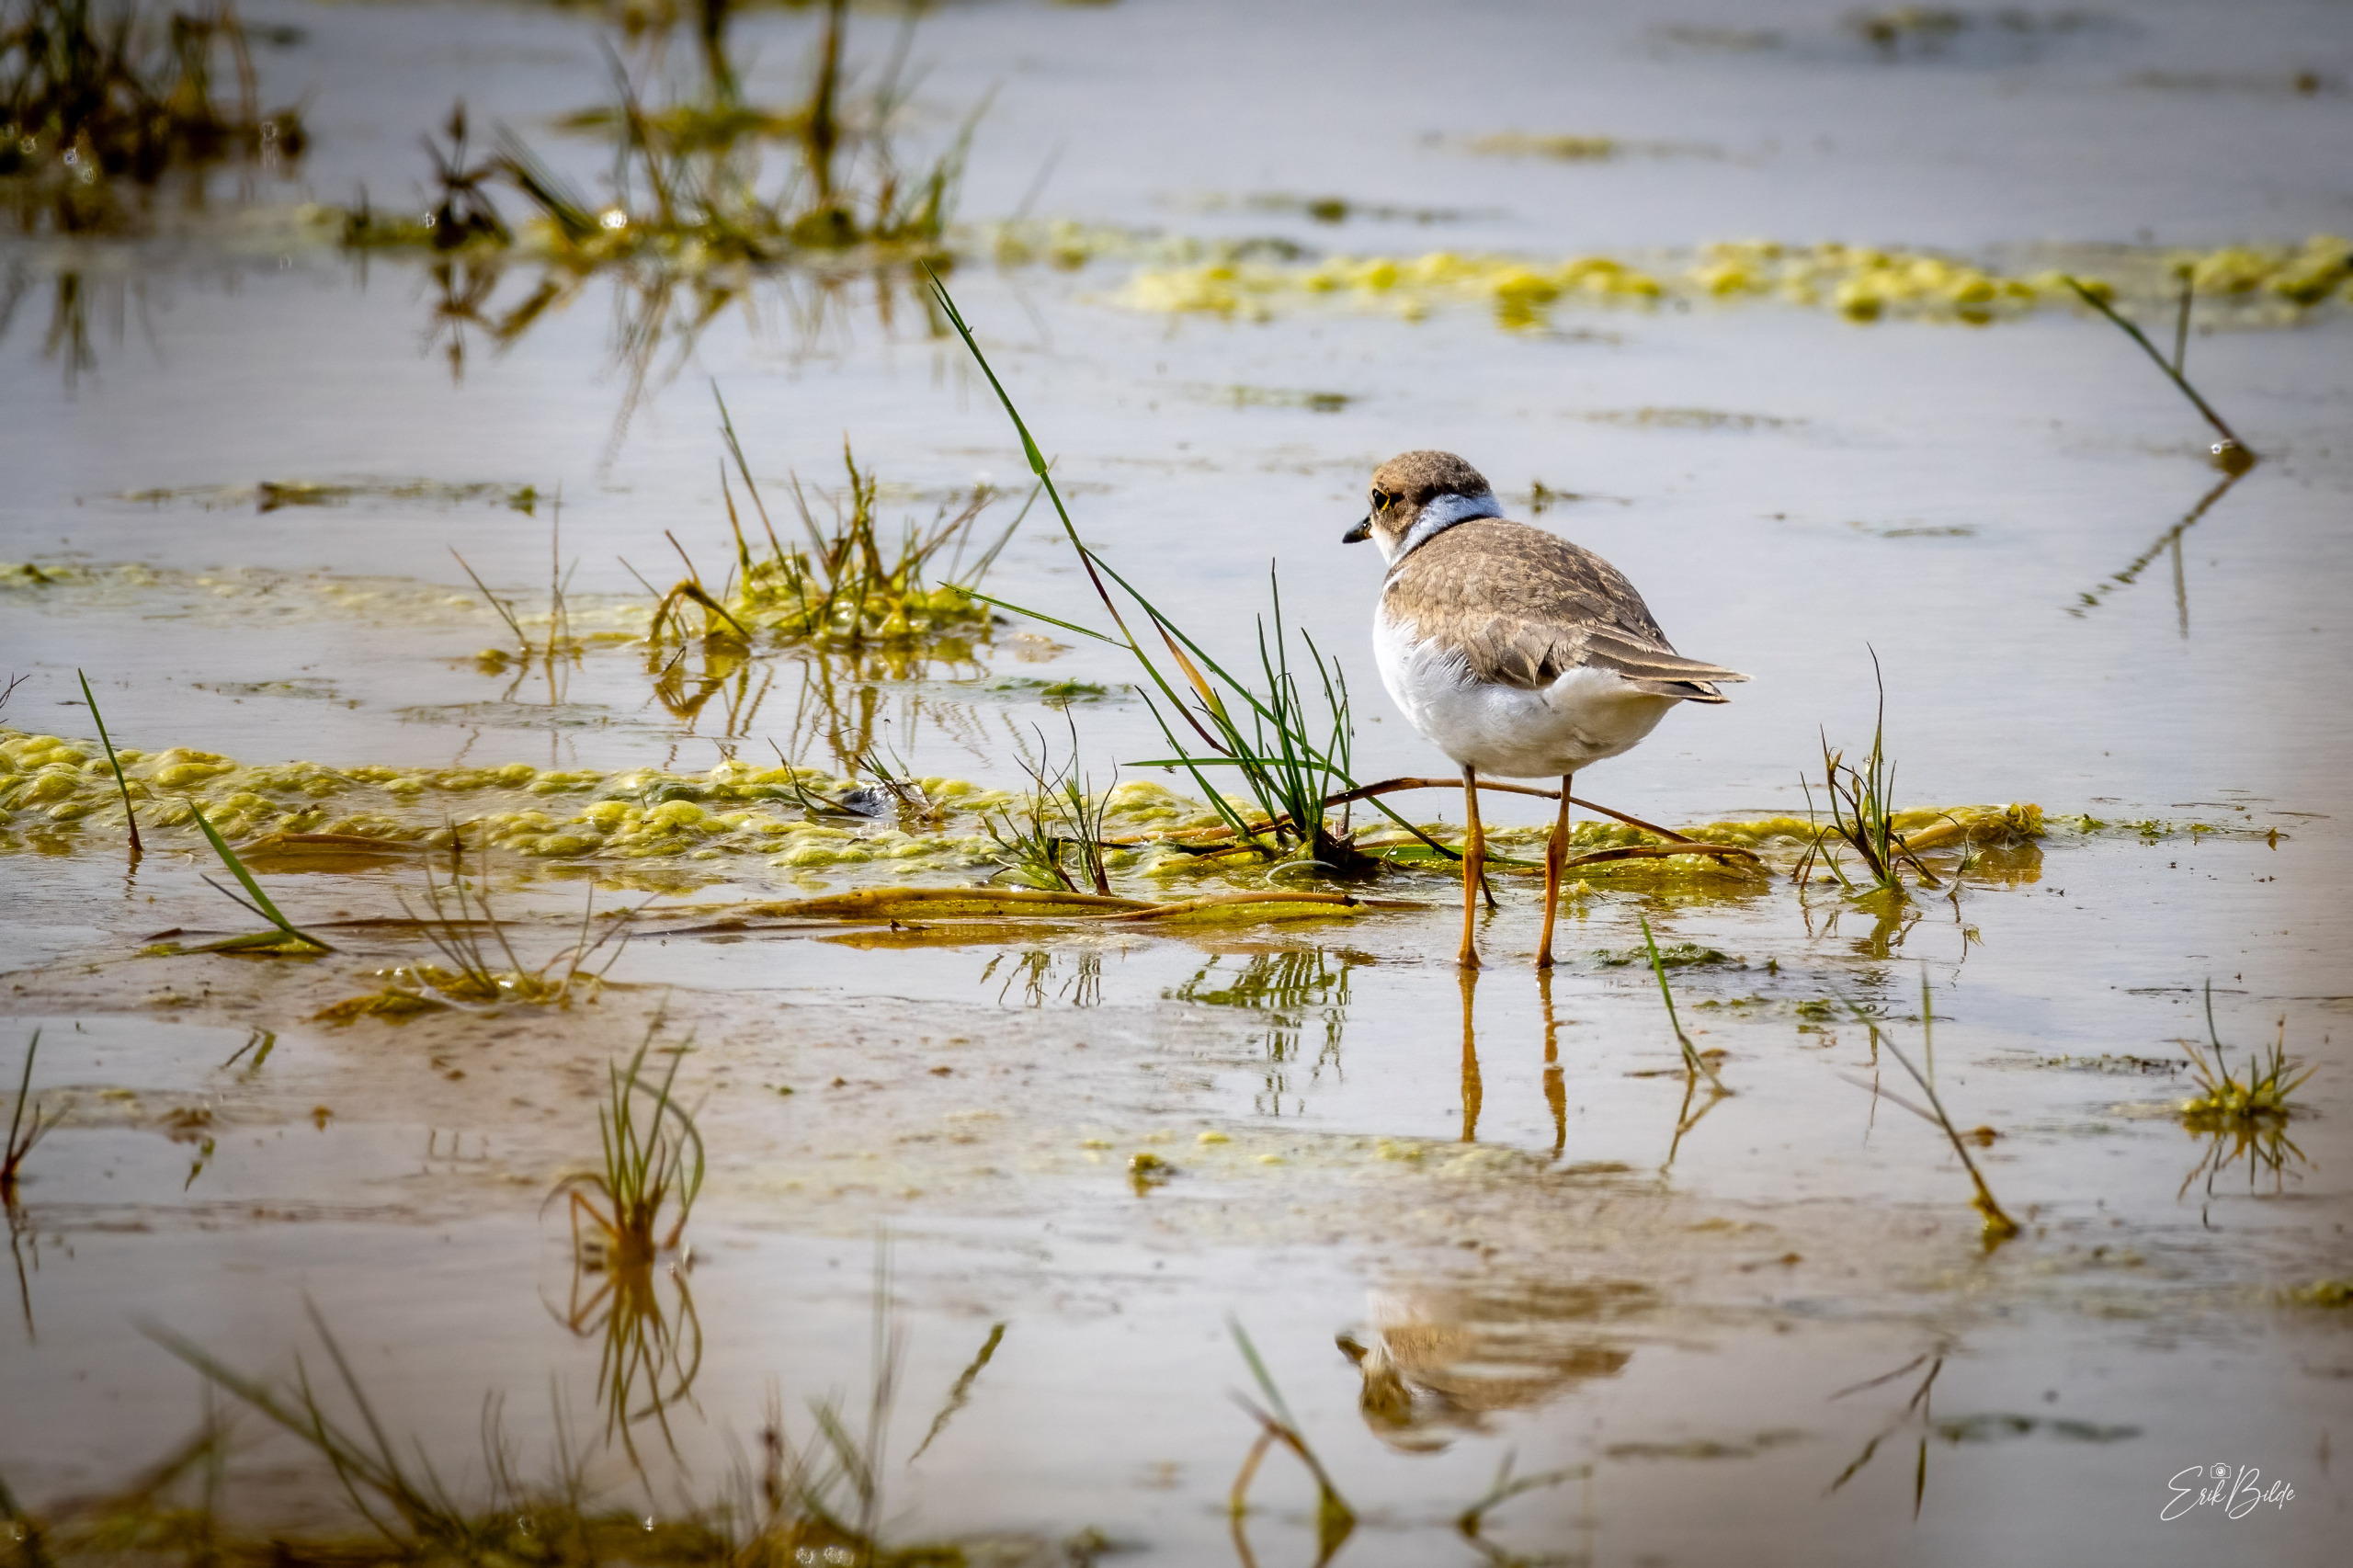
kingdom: Animalia
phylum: Chordata
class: Aves
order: Charadriiformes
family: Charadriidae
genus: Charadrius
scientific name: Charadrius dubius
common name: Lille præstekrave
